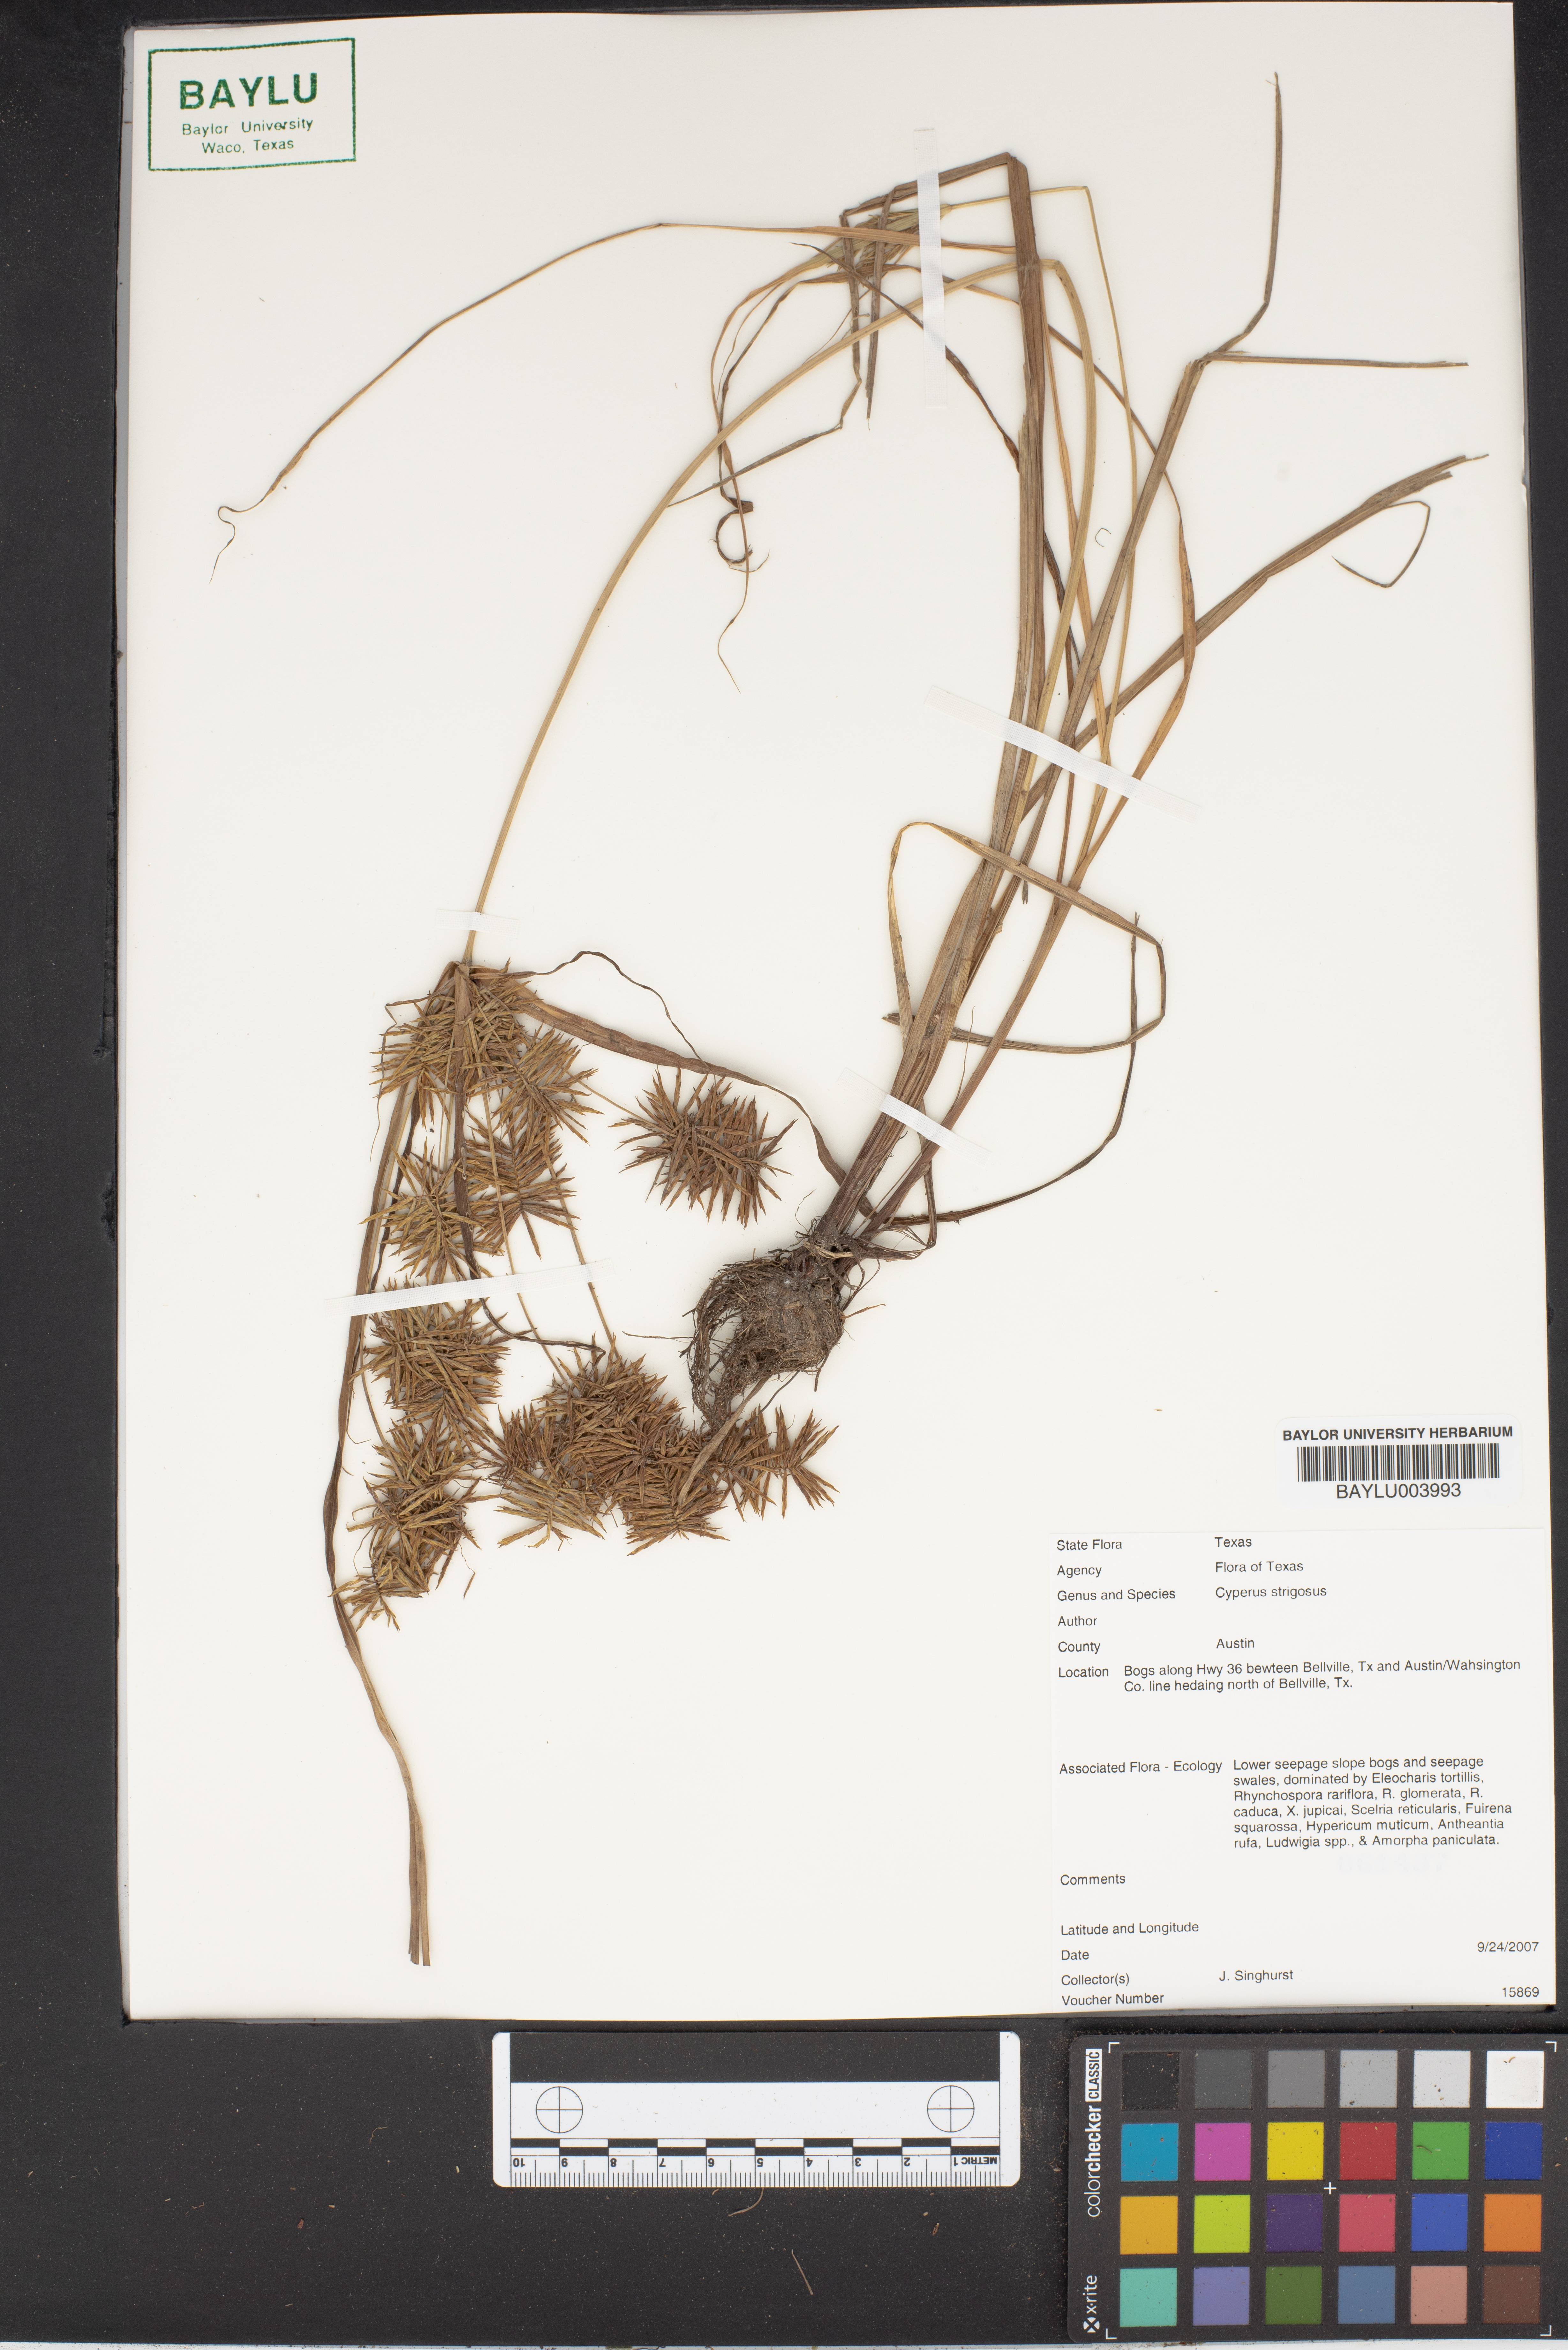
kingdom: Plantae
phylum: Tracheophyta
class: Liliopsida
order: Poales
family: Cyperaceae
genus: Cyperus
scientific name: Cyperus strigosus
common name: False nutsedge
